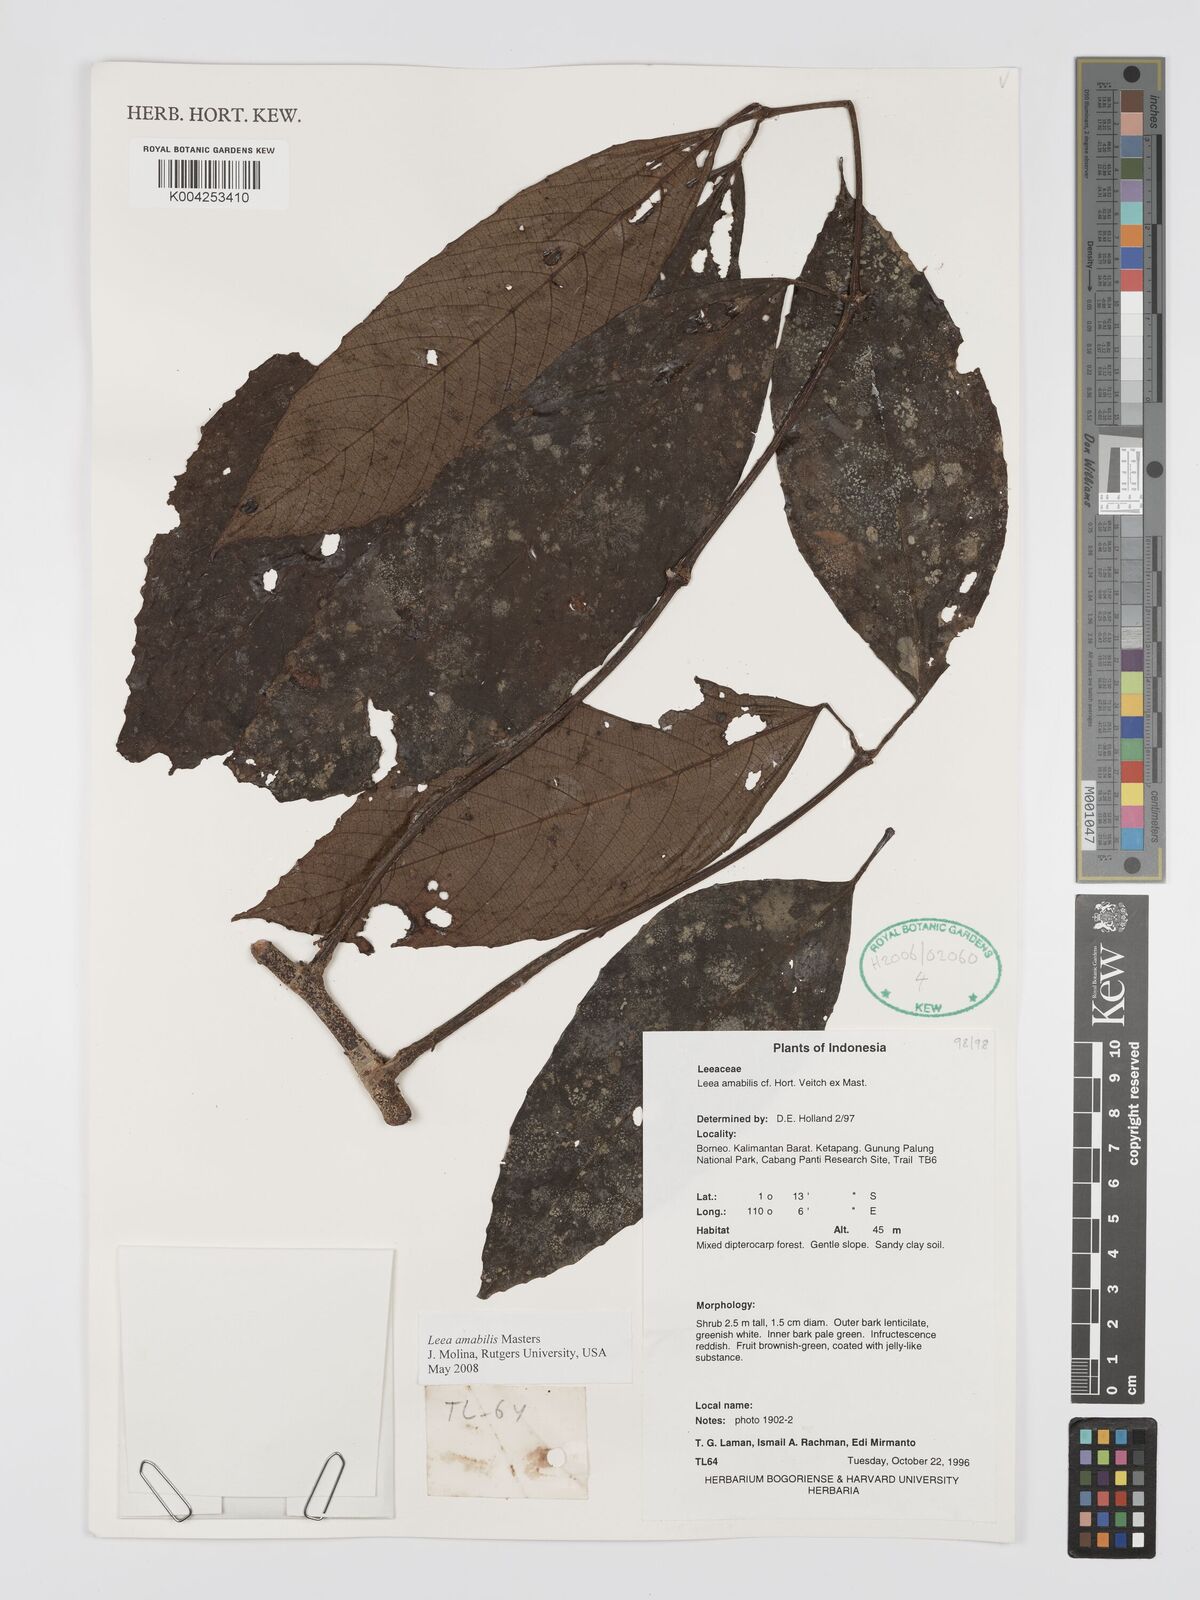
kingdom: Plantae
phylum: Tracheophyta
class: Magnoliopsida
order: Vitales
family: Vitaceae
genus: Leea
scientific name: Leea amabilis
